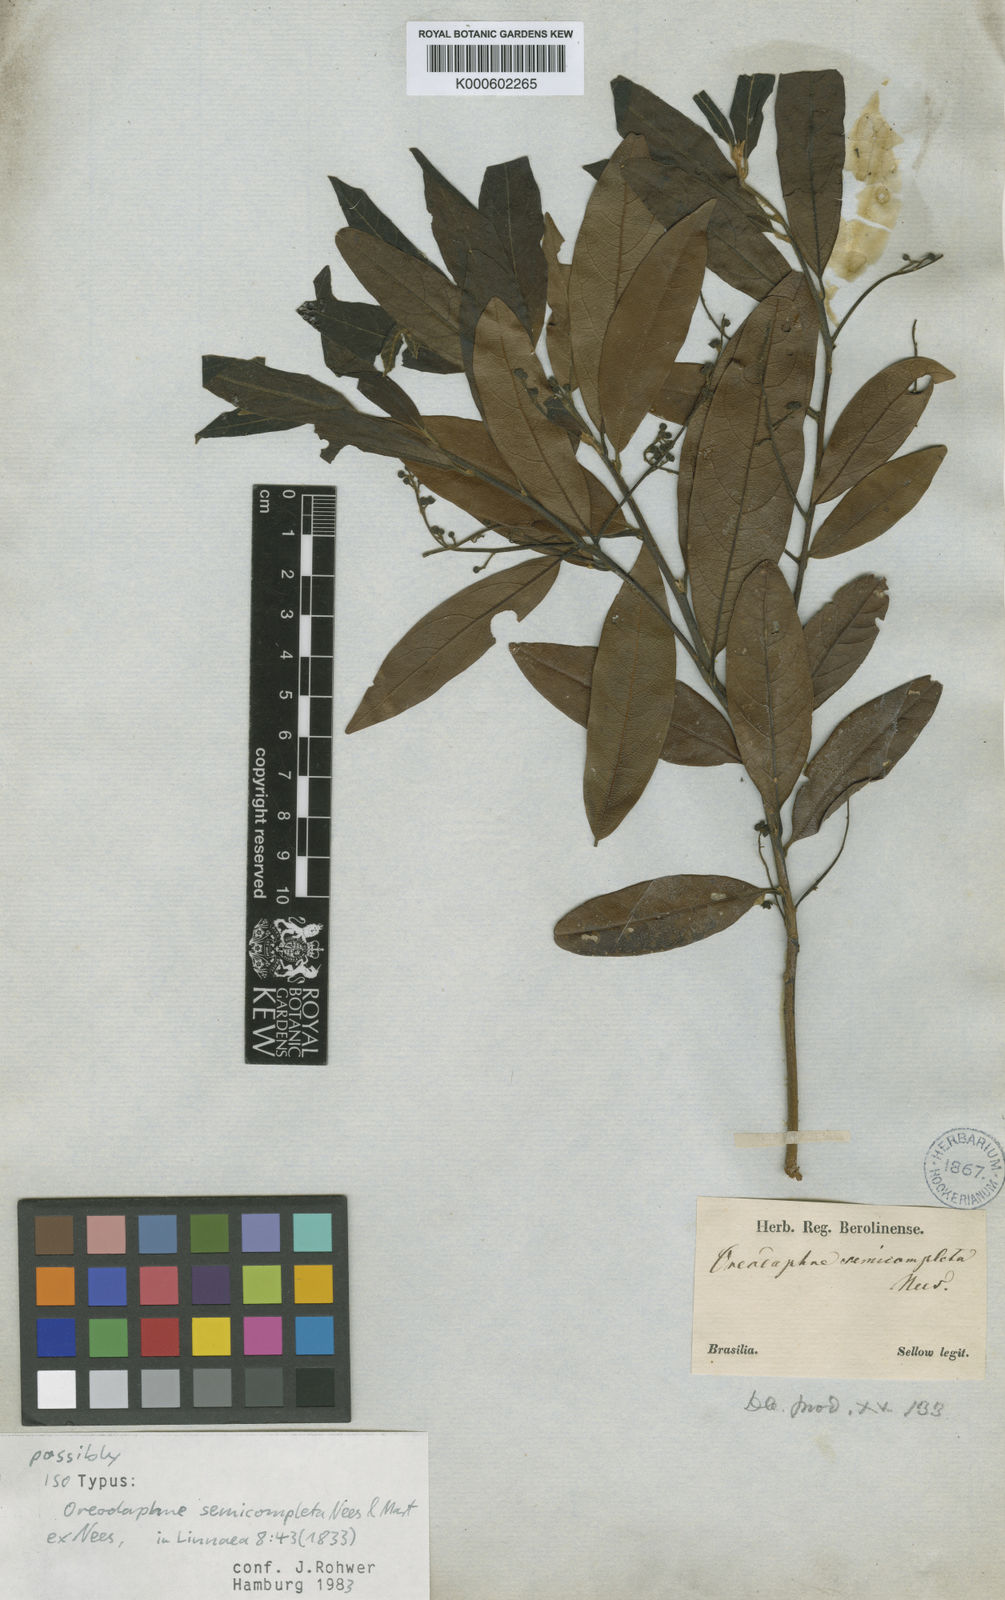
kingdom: Plantae
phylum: Tracheophyta
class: Magnoliopsida
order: Laurales
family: Lauraceae
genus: Ocotea
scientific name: Ocotea semicompleta
